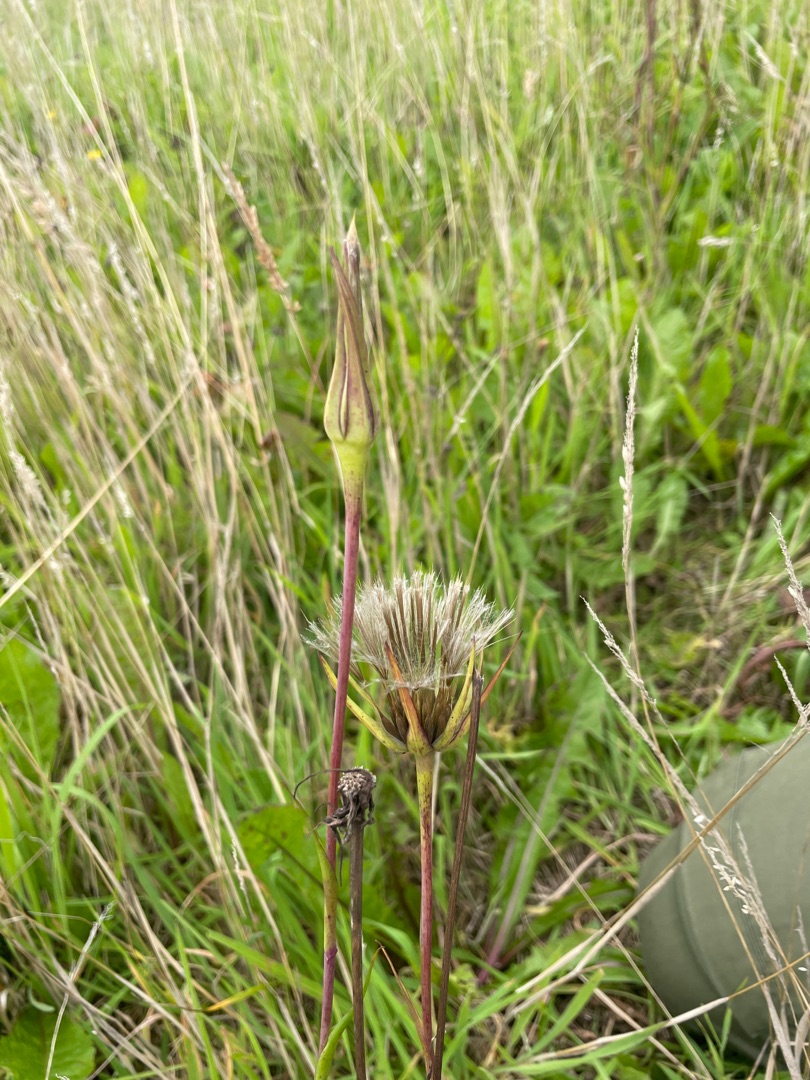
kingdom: Plantae
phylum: Tracheophyta
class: Magnoliopsida
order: Asterales
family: Asteraceae
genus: Tragopogon
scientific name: Tragopogon pratensis
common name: Gedeskæg
